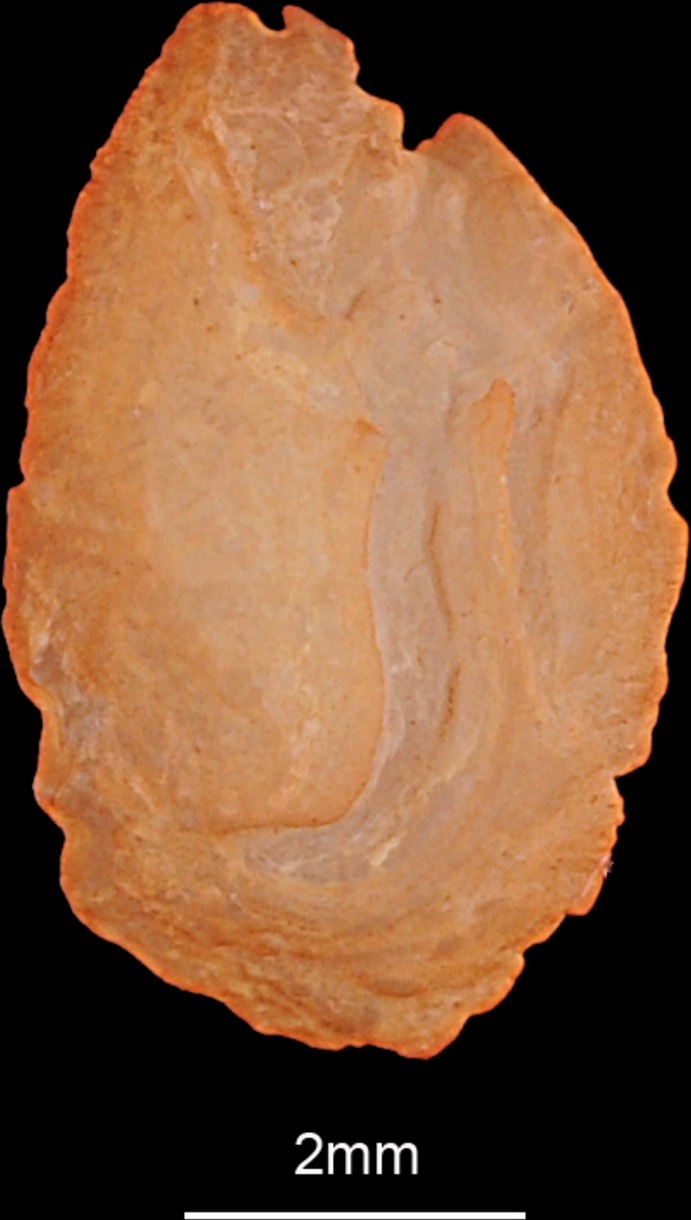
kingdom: Animalia
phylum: Chordata
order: Perciformes
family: Gerreidae
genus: Gerres
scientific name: Gerres filamentosus
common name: Whipfin silverbiddy
